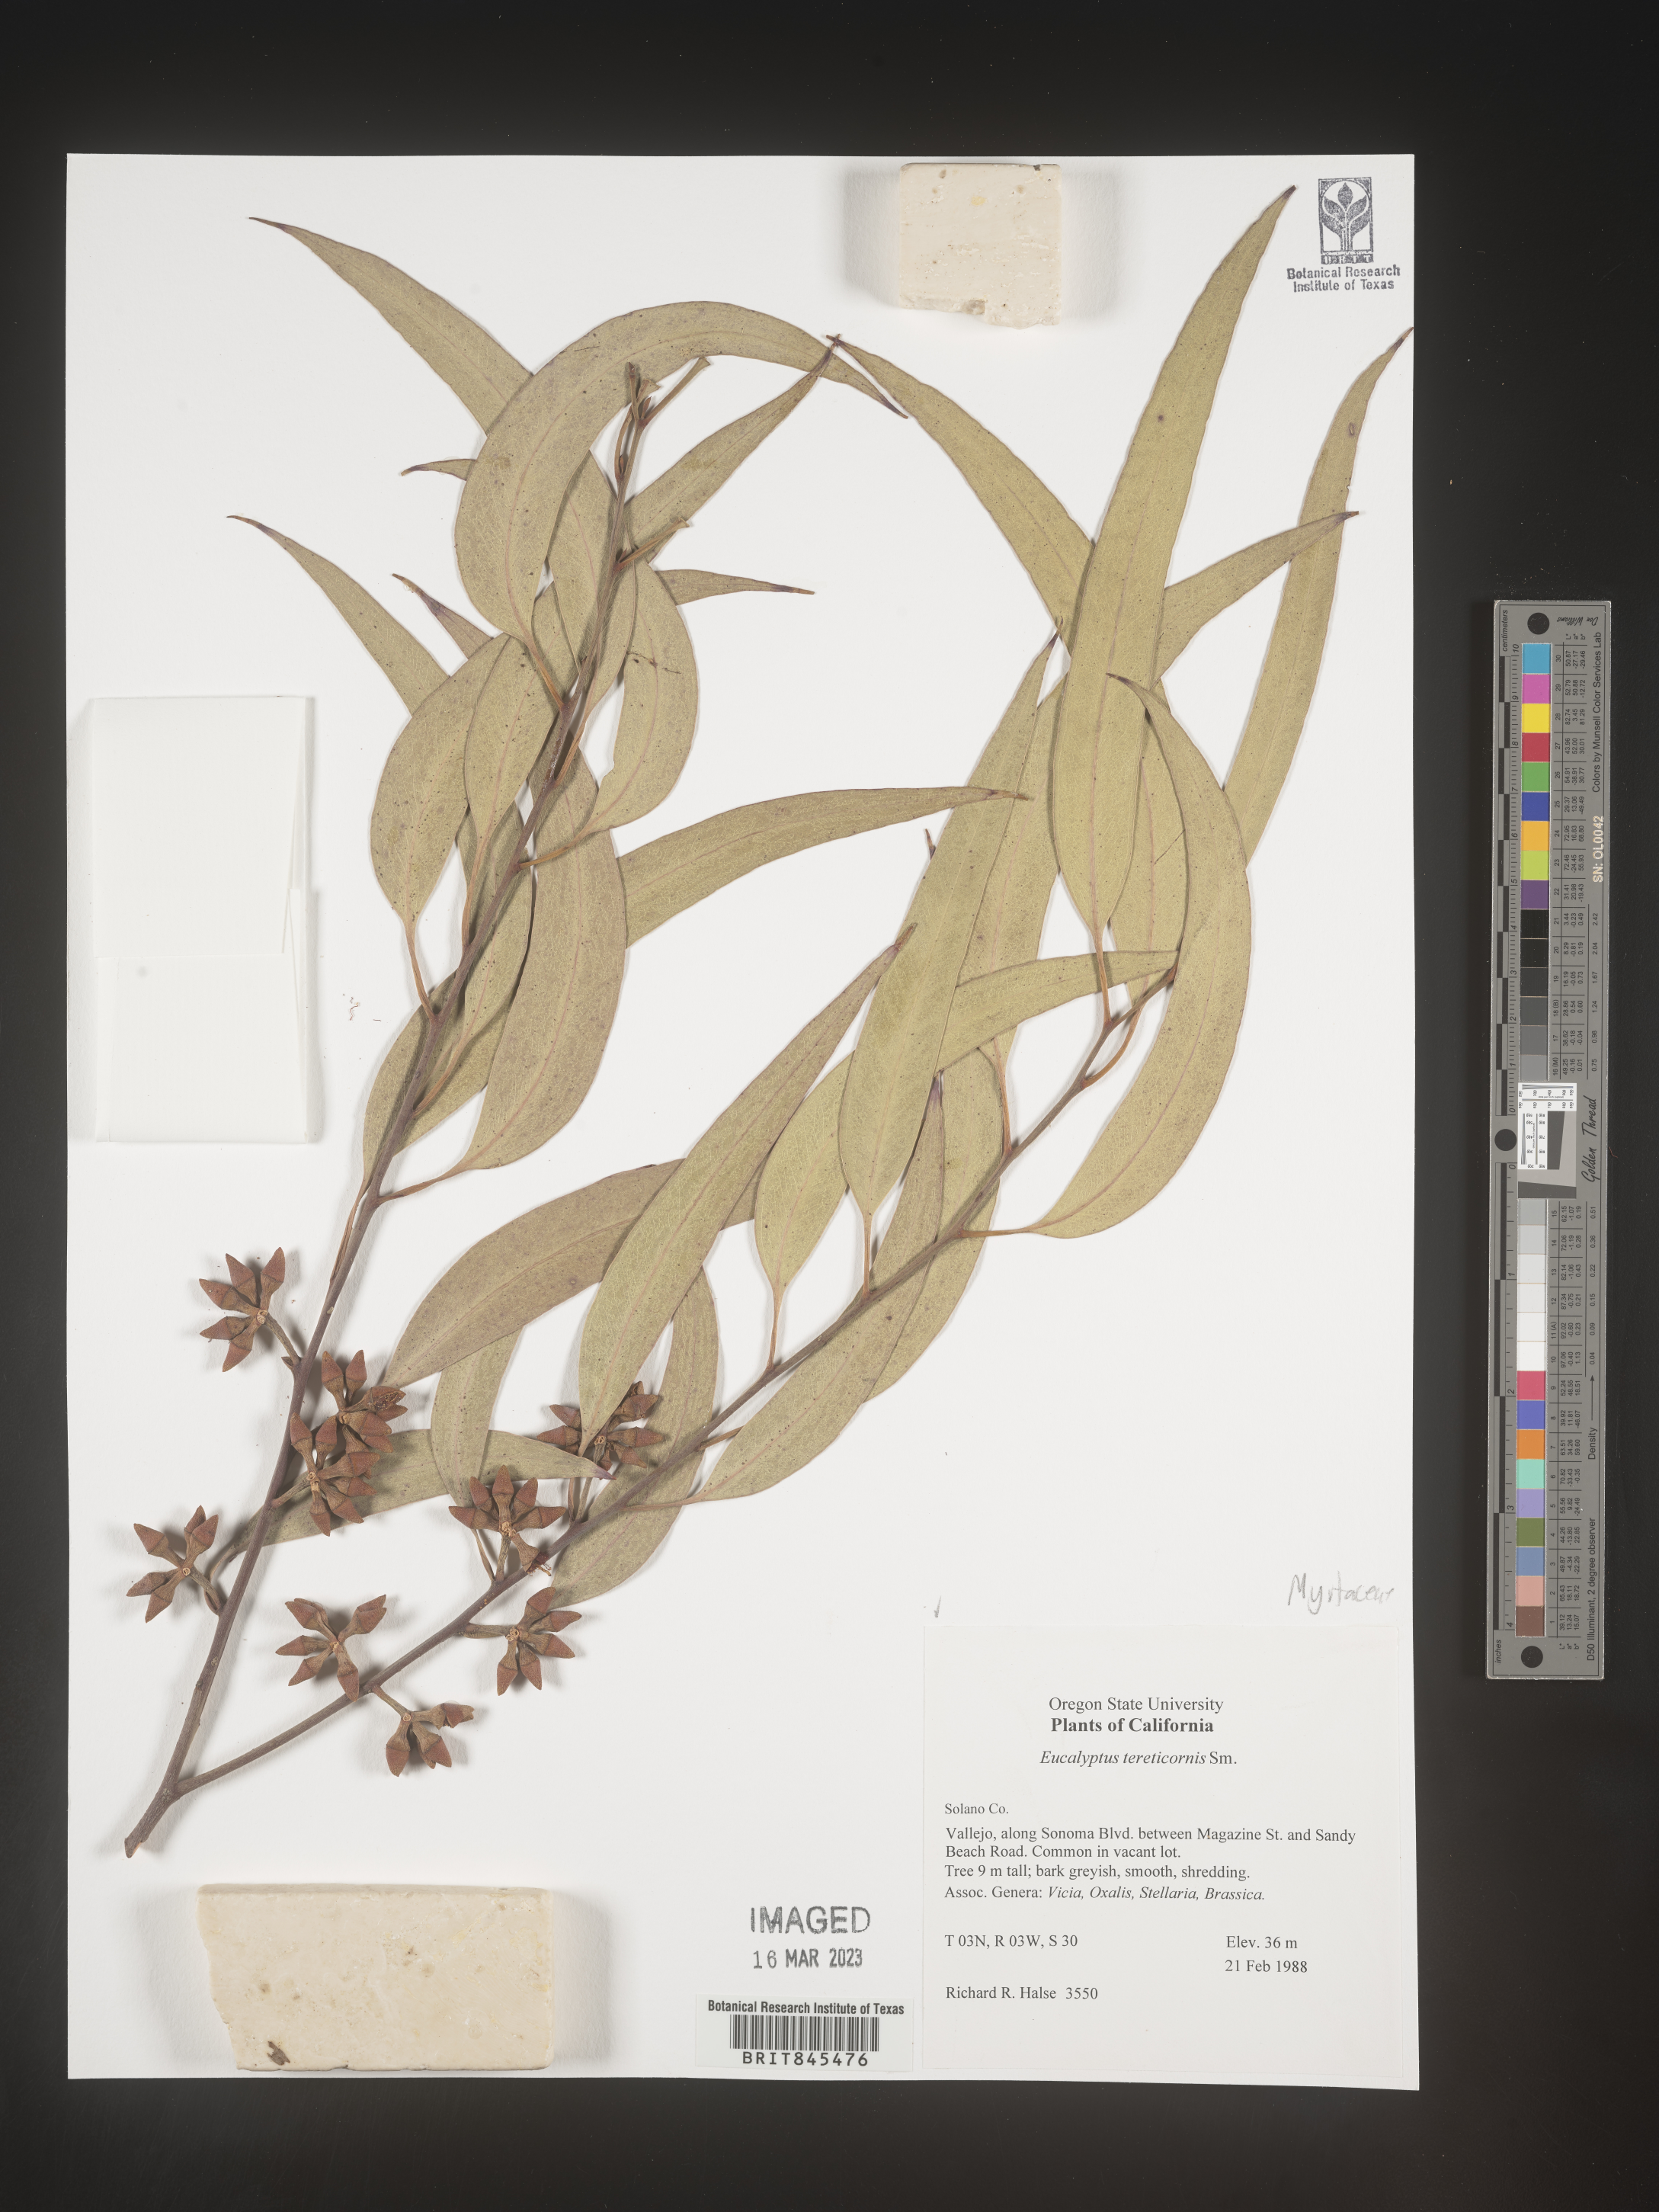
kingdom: Plantae
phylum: Tracheophyta
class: Magnoliopsida
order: Myrtales
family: Myrtaceae
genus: Eucalyptus
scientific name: Eucalyptus
